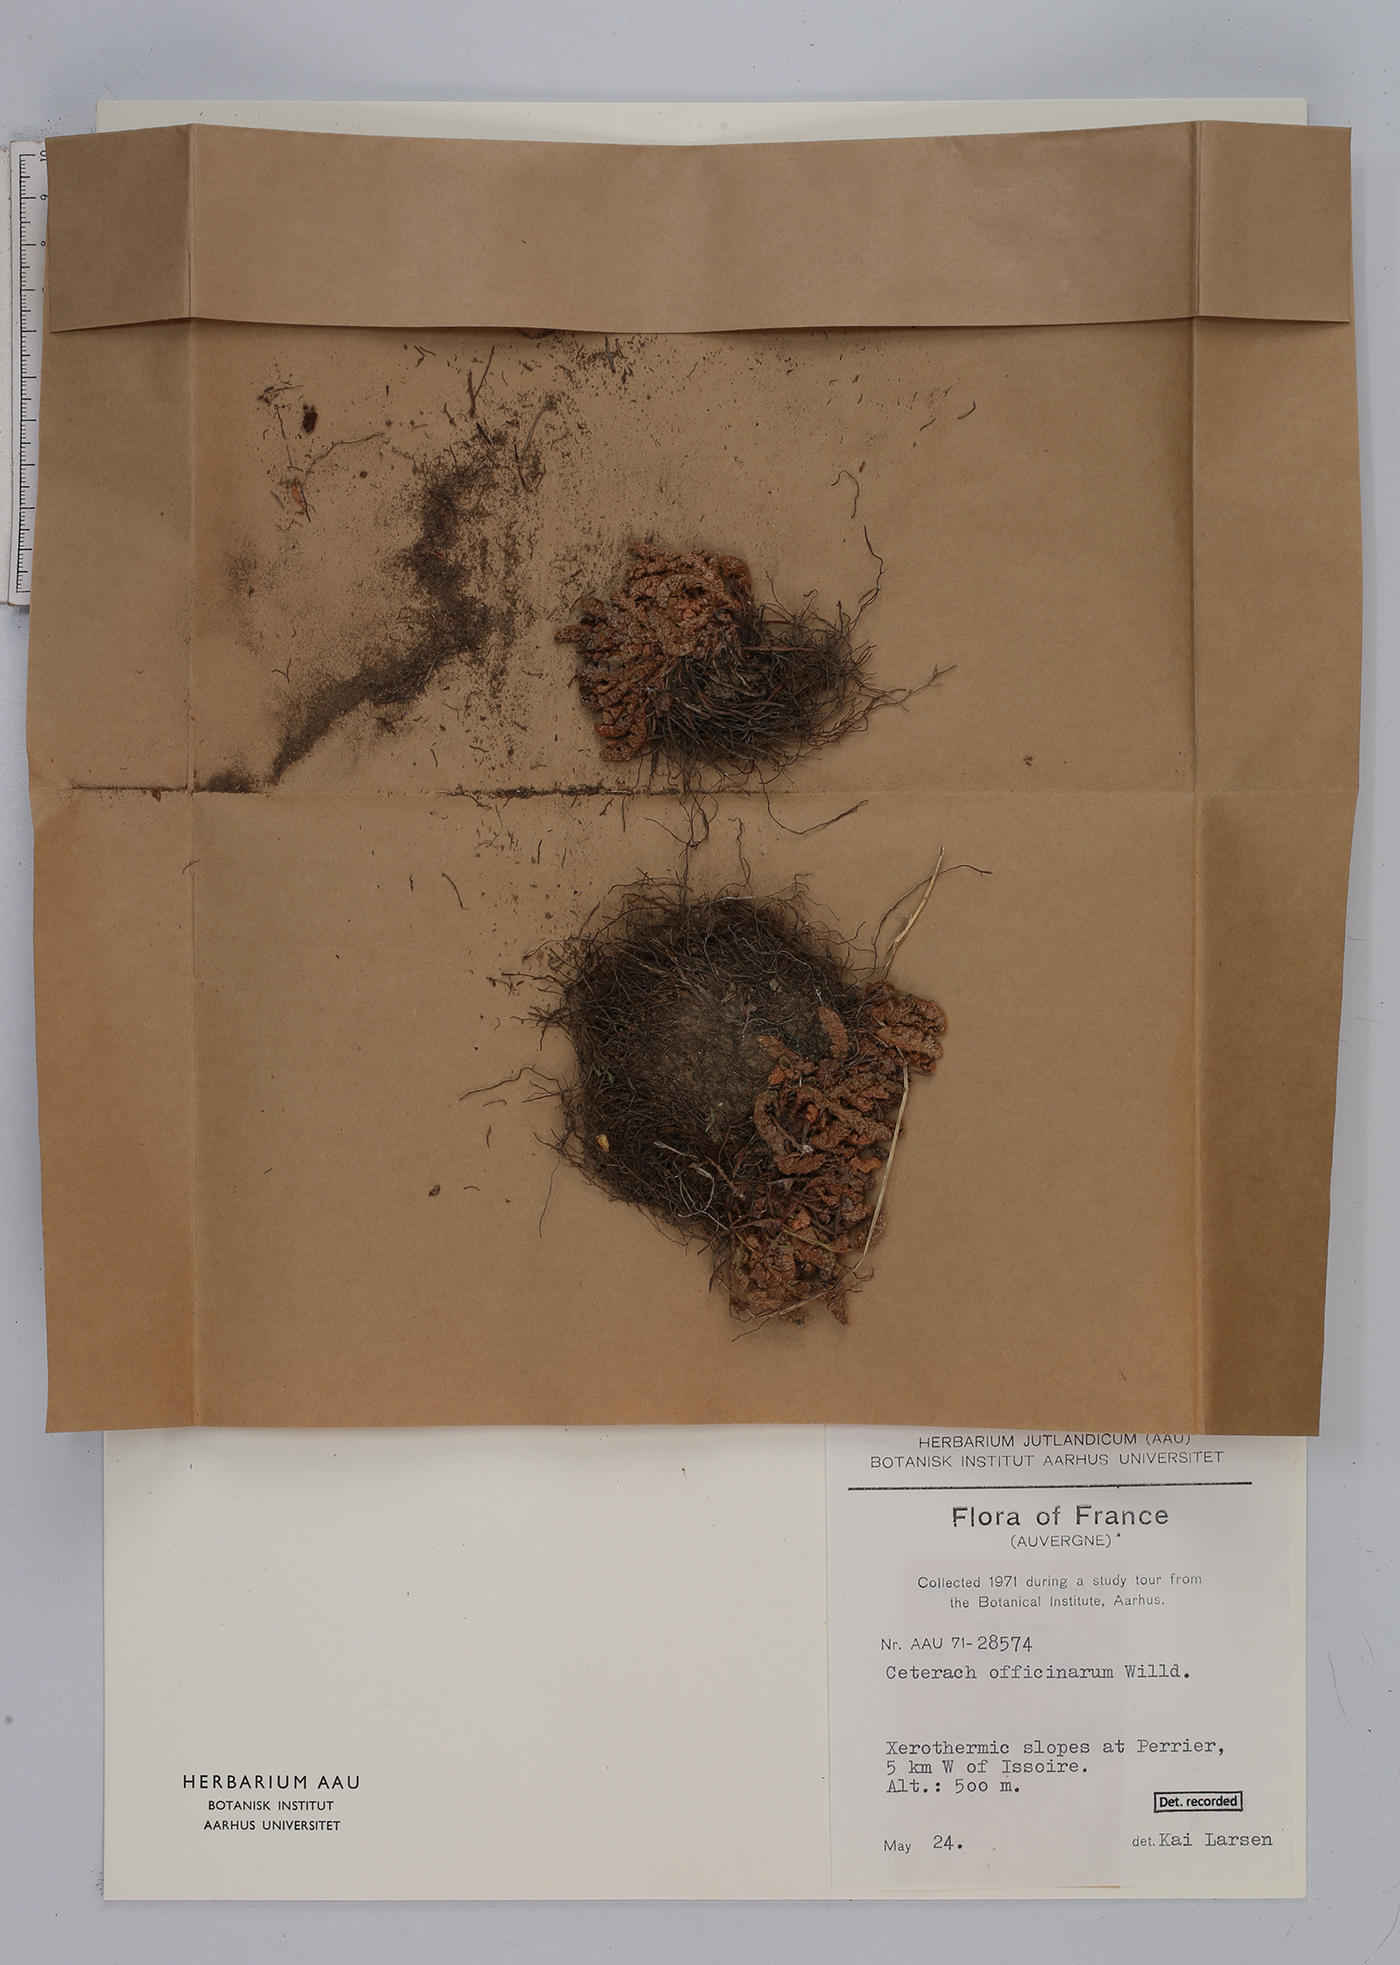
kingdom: Plantae
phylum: Tracheophyta
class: Polypodiopsida
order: Polypodiales
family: Aspleniaceae
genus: Asplenium
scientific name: Asplenium ceterach
